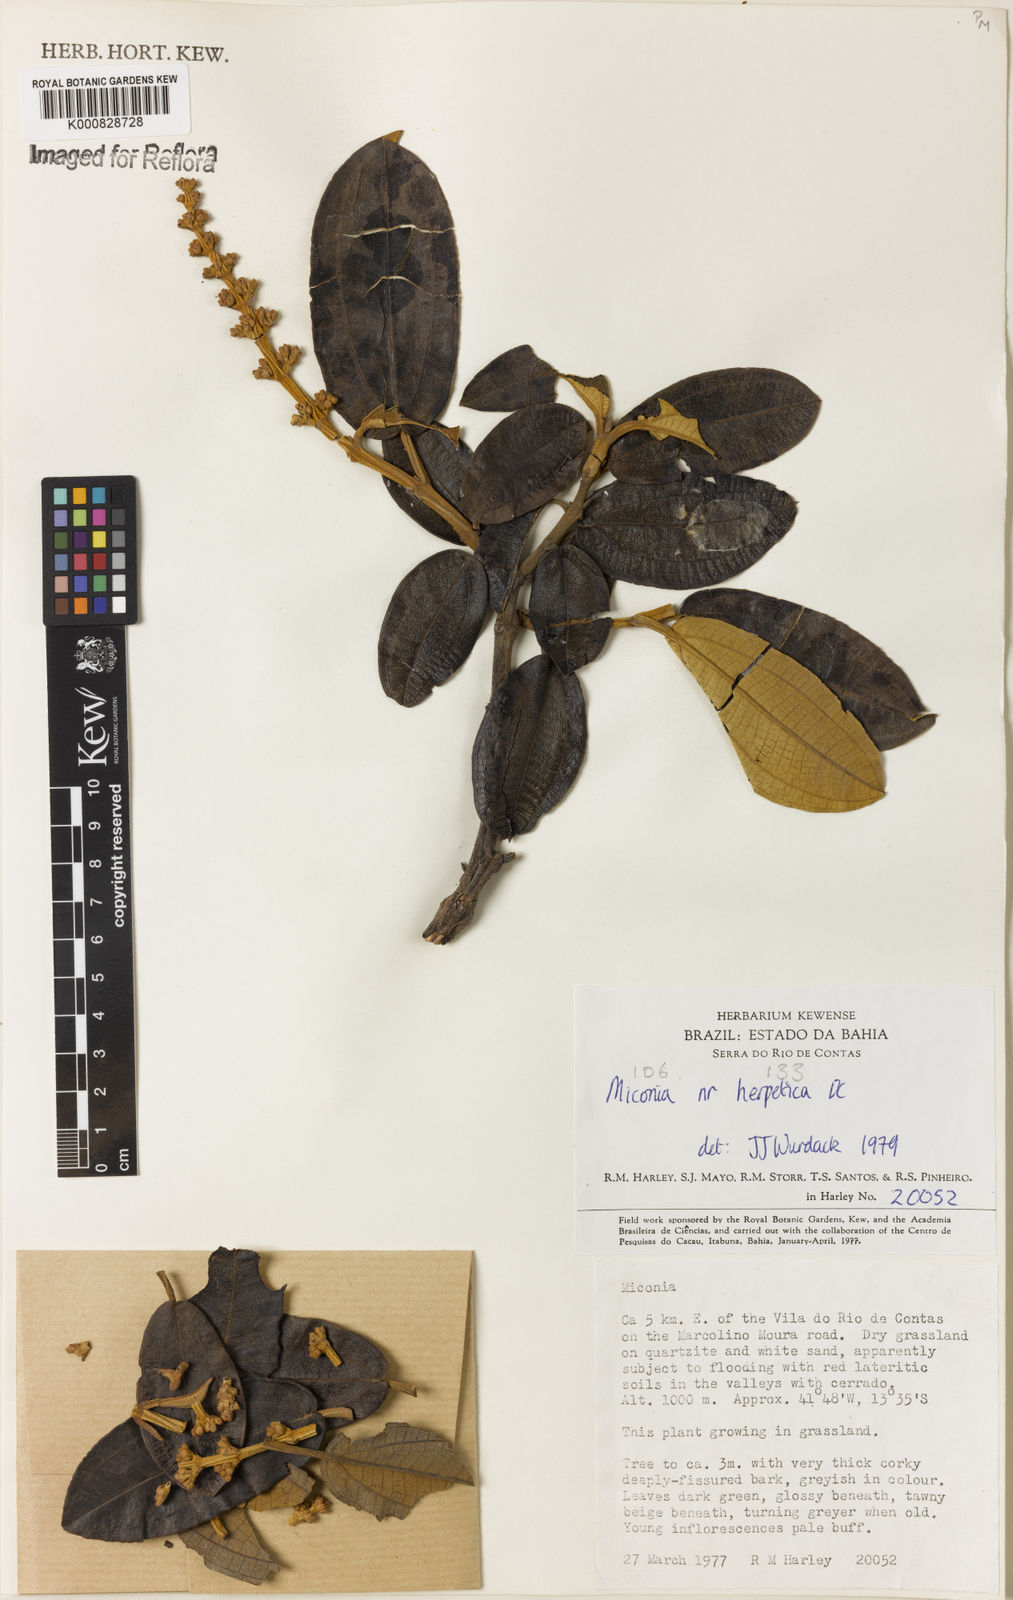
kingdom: Plantae
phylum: Tracheophyta
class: Magnoliopsida
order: Myrtales
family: Melastomataceae
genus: Miconia
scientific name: Miconia herpetica
